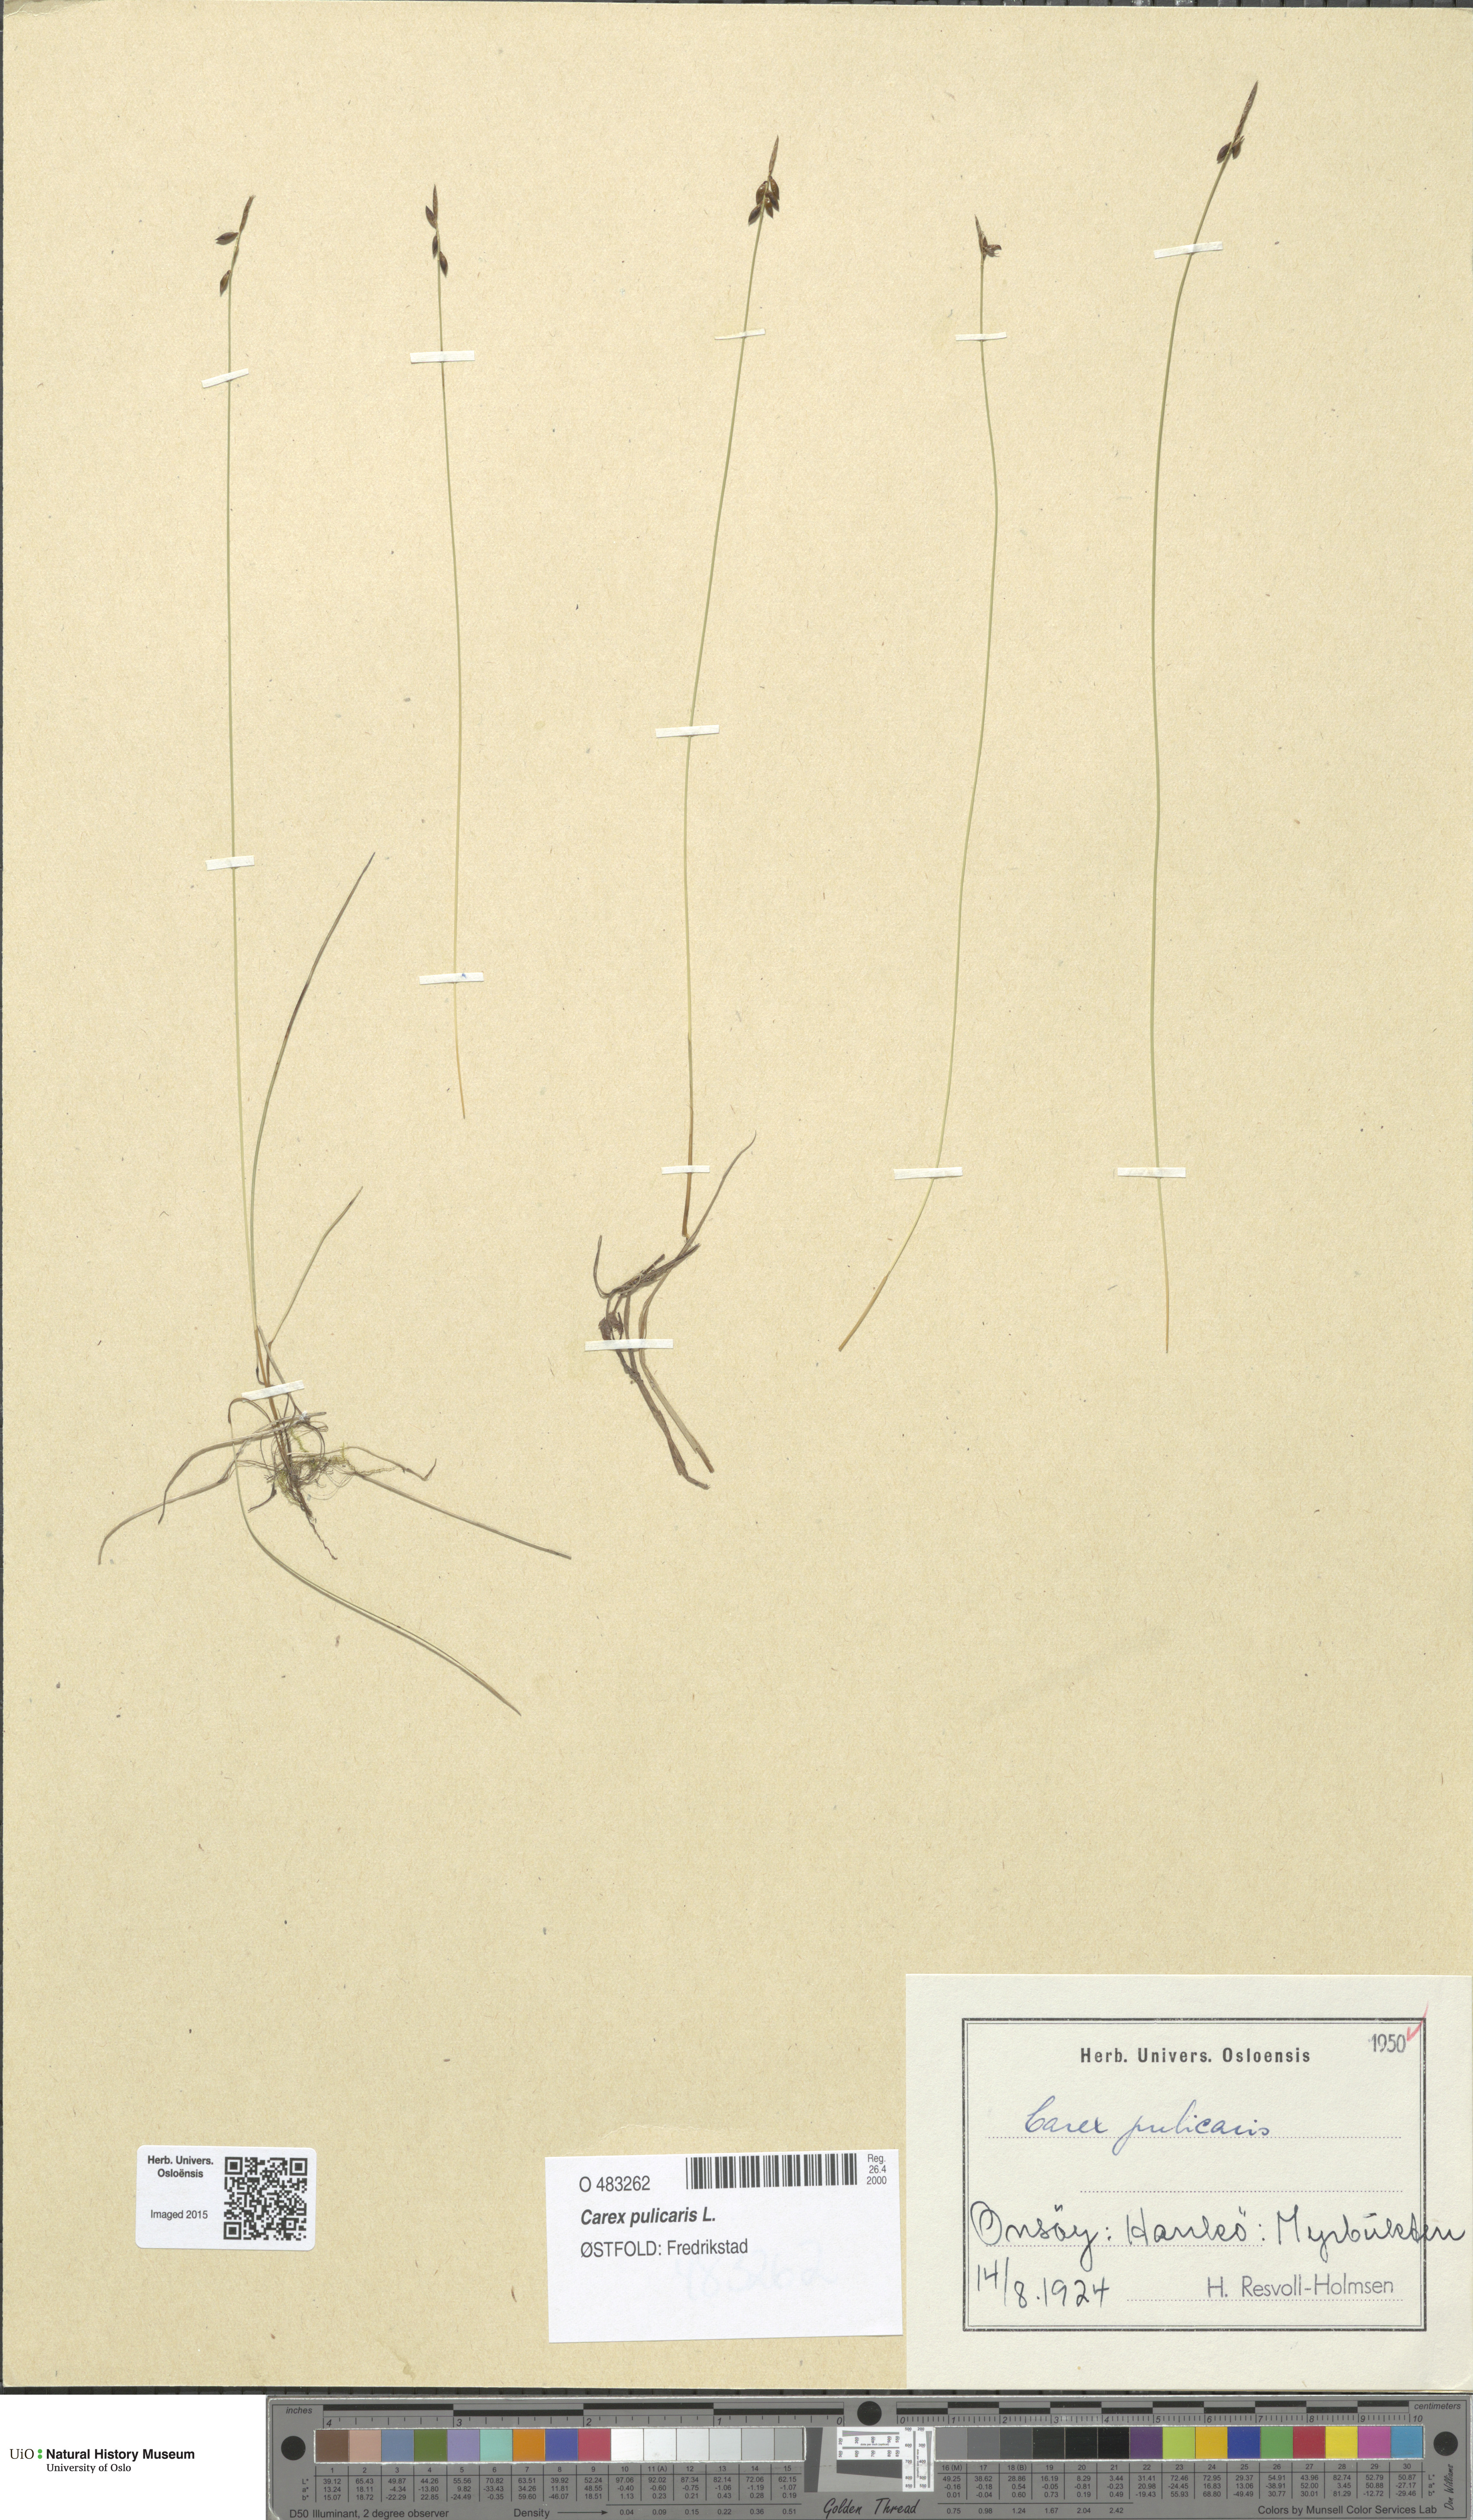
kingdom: Plantae
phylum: Tracheophyta
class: Liliopsida
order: Poales
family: Cyperaceae
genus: Carex
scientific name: Carex pulicaris
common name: Flea sedge
